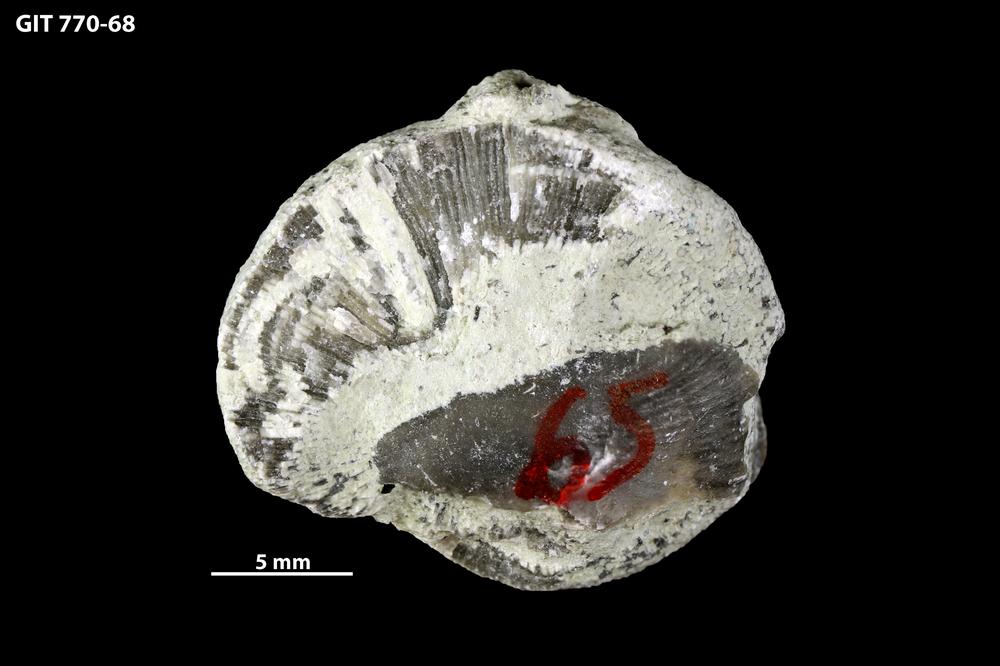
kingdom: Animalia
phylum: Bryozoa
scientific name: Bryozoa
